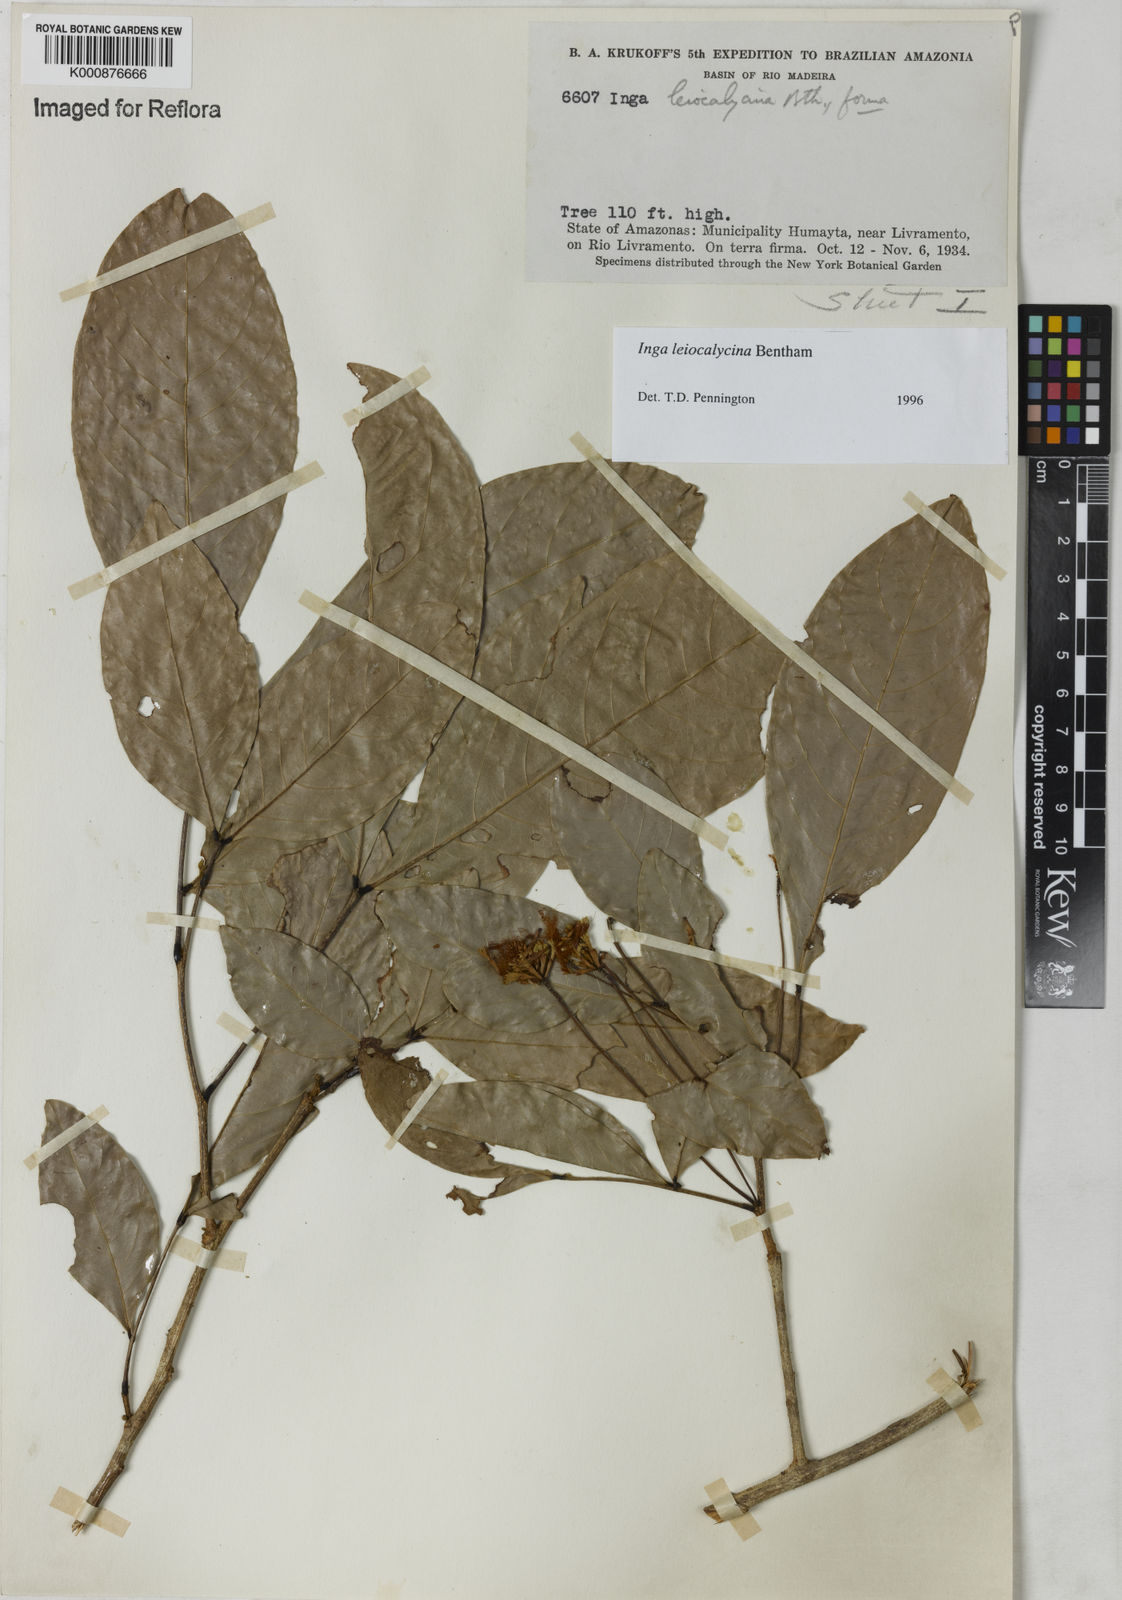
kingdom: Plantae
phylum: Tracheophyta
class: Magnoliopsida
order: Fabales
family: Fabaceae
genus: Inga
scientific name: Inga laevigata
